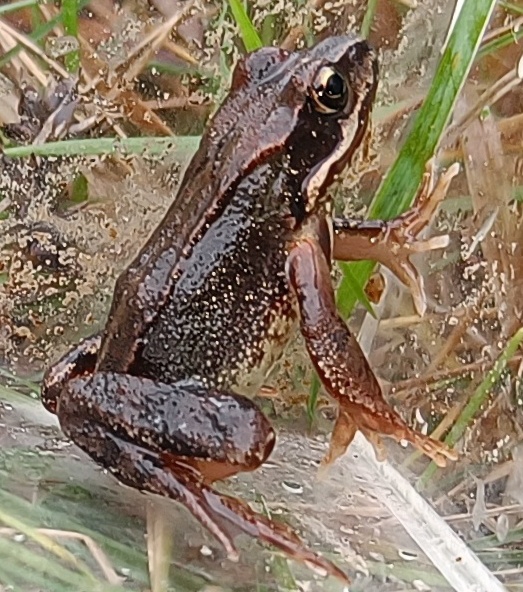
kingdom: Animalia
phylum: Chordata
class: Amphibia
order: Anura
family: Ranidae
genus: Rana
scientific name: Rana temporaria
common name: Butsnudet frø
